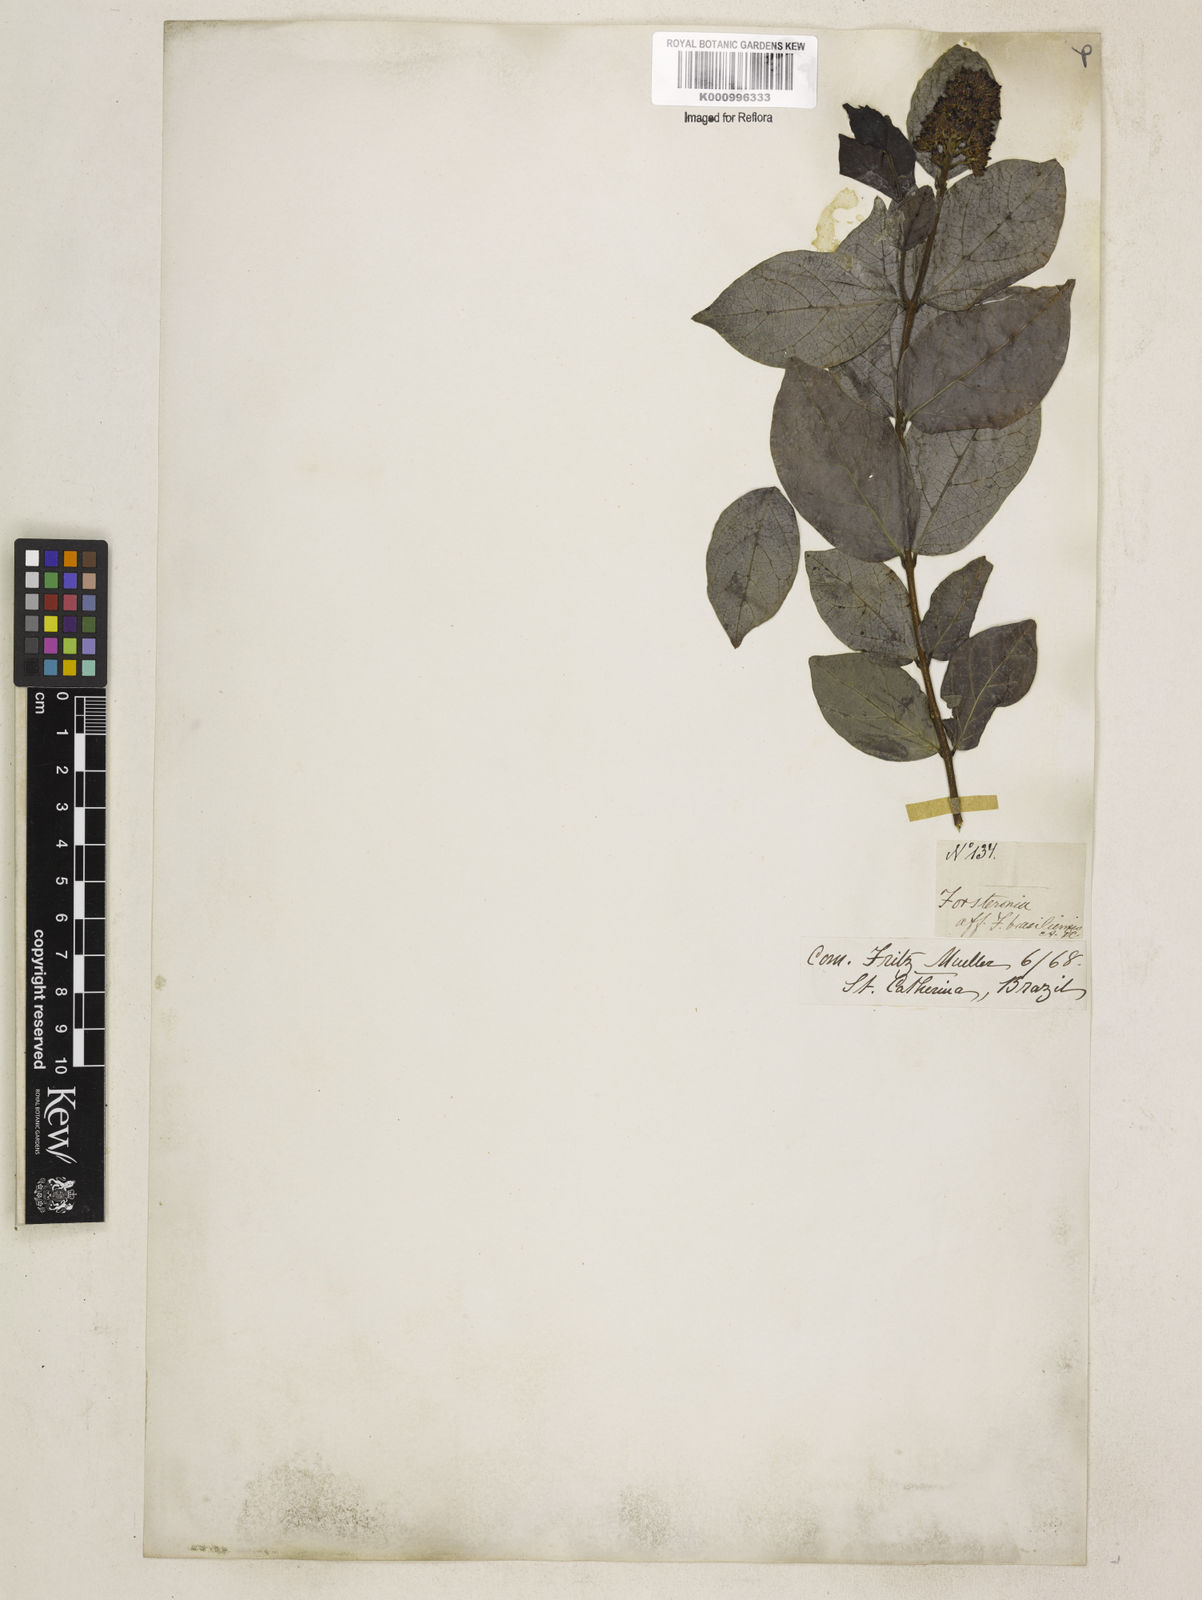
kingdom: Plantae
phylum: Tracheophyta
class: Magnoliopsida
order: Gentianales
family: Apocynaceae
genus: Forsteronia
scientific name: Forsteronia leptocarpa
